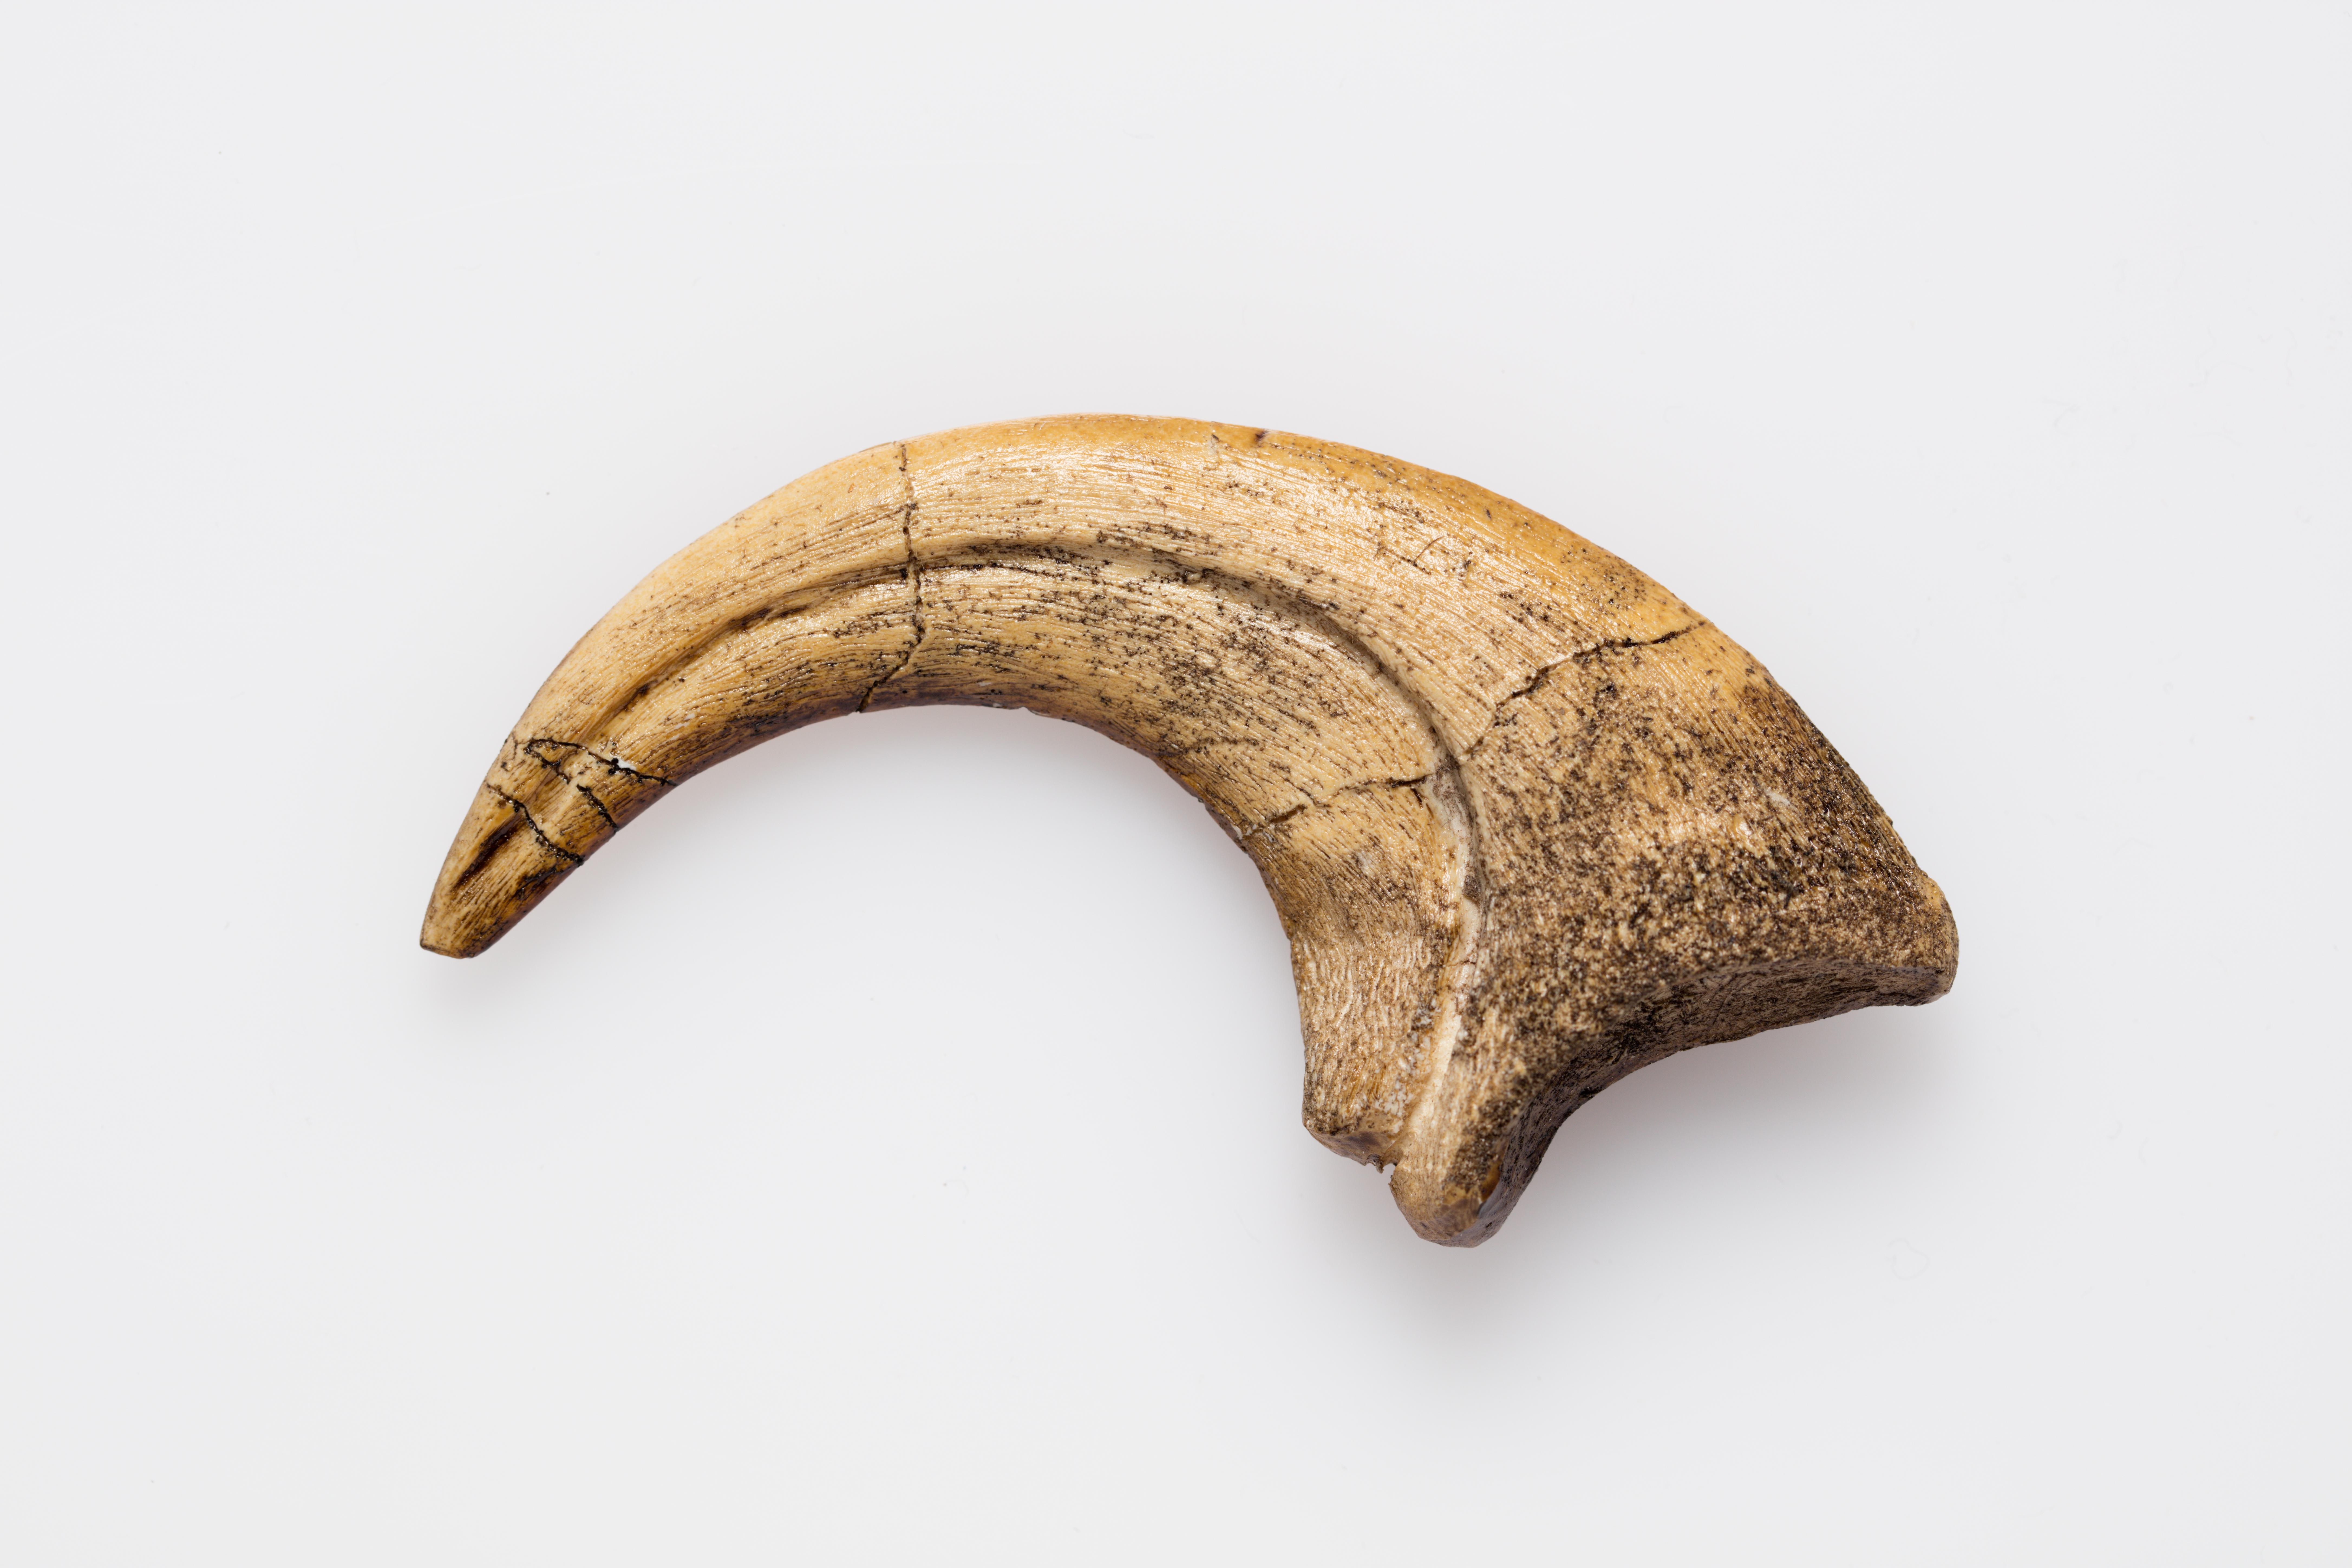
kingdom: Animalia
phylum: Chordata
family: Dromaeosauridae
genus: Deinonychus
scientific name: Deinonychus
